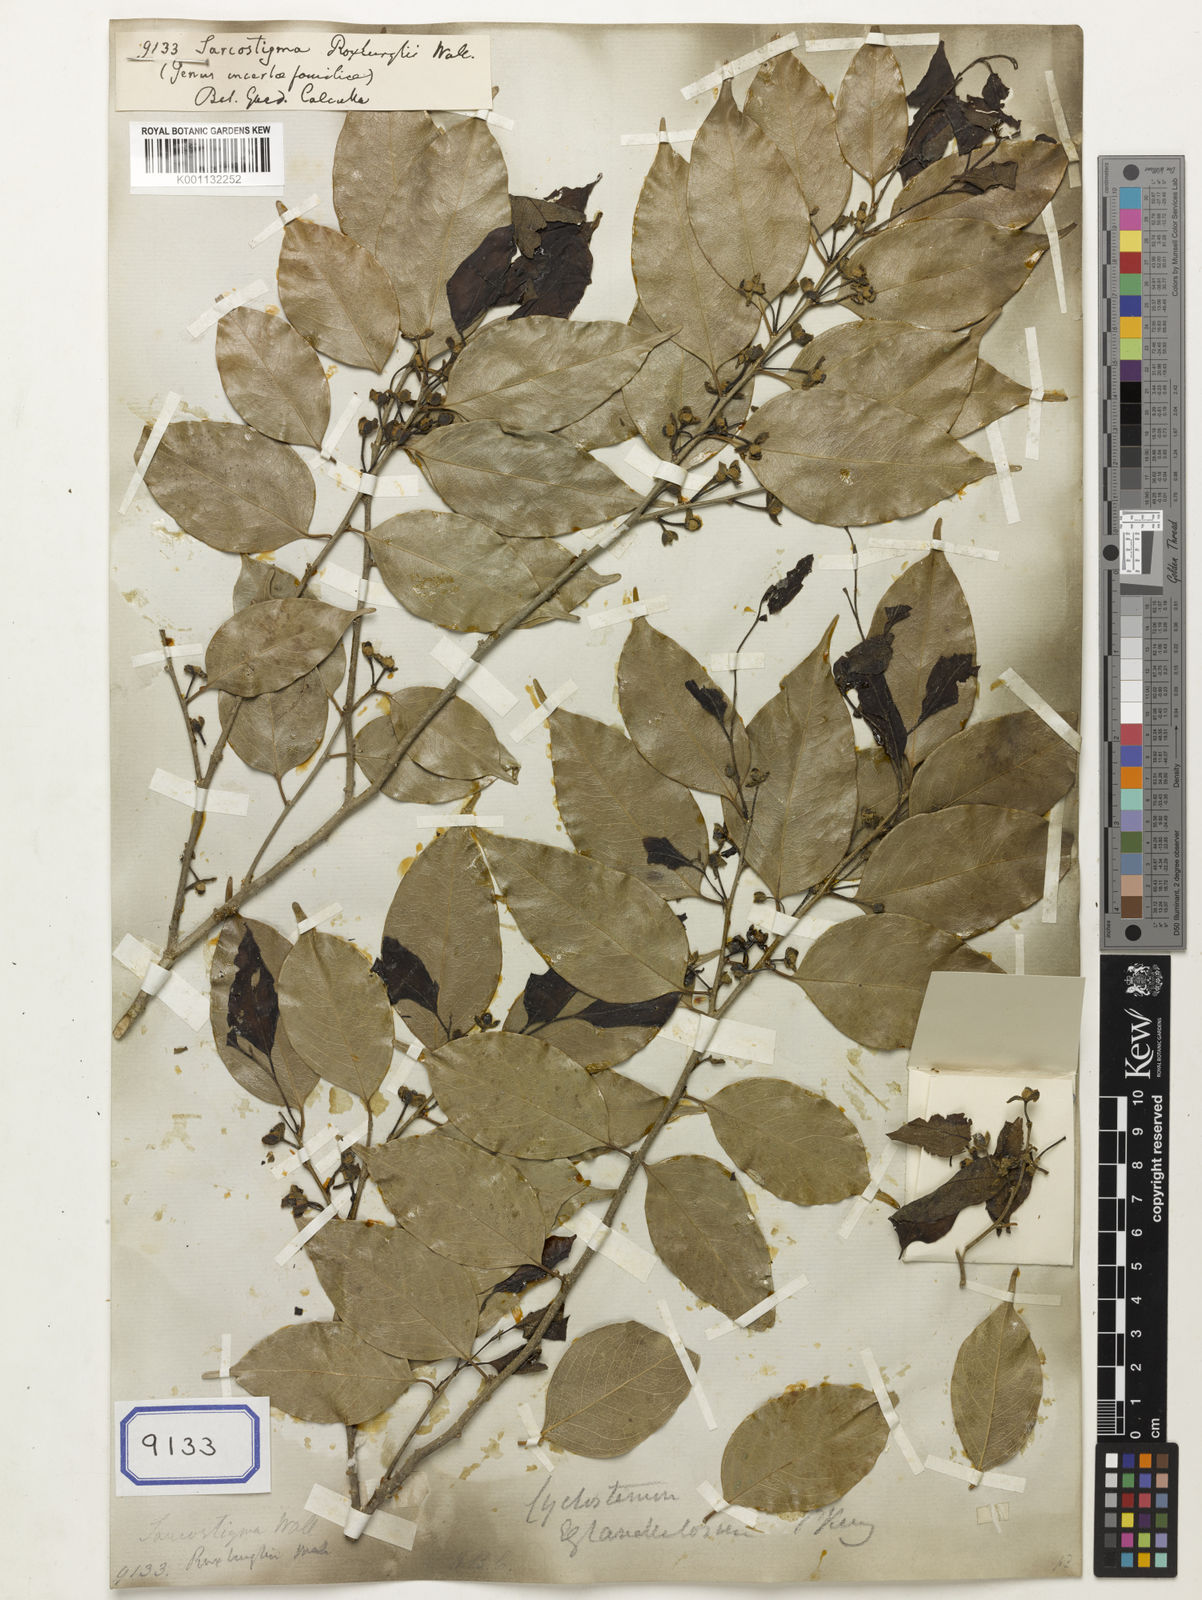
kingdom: Plantae
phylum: Tracheophyta
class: Magnoliopsida
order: Icacinales
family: Icacinaceae
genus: Sarcostigma
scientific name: Sarcostigma kleinii
